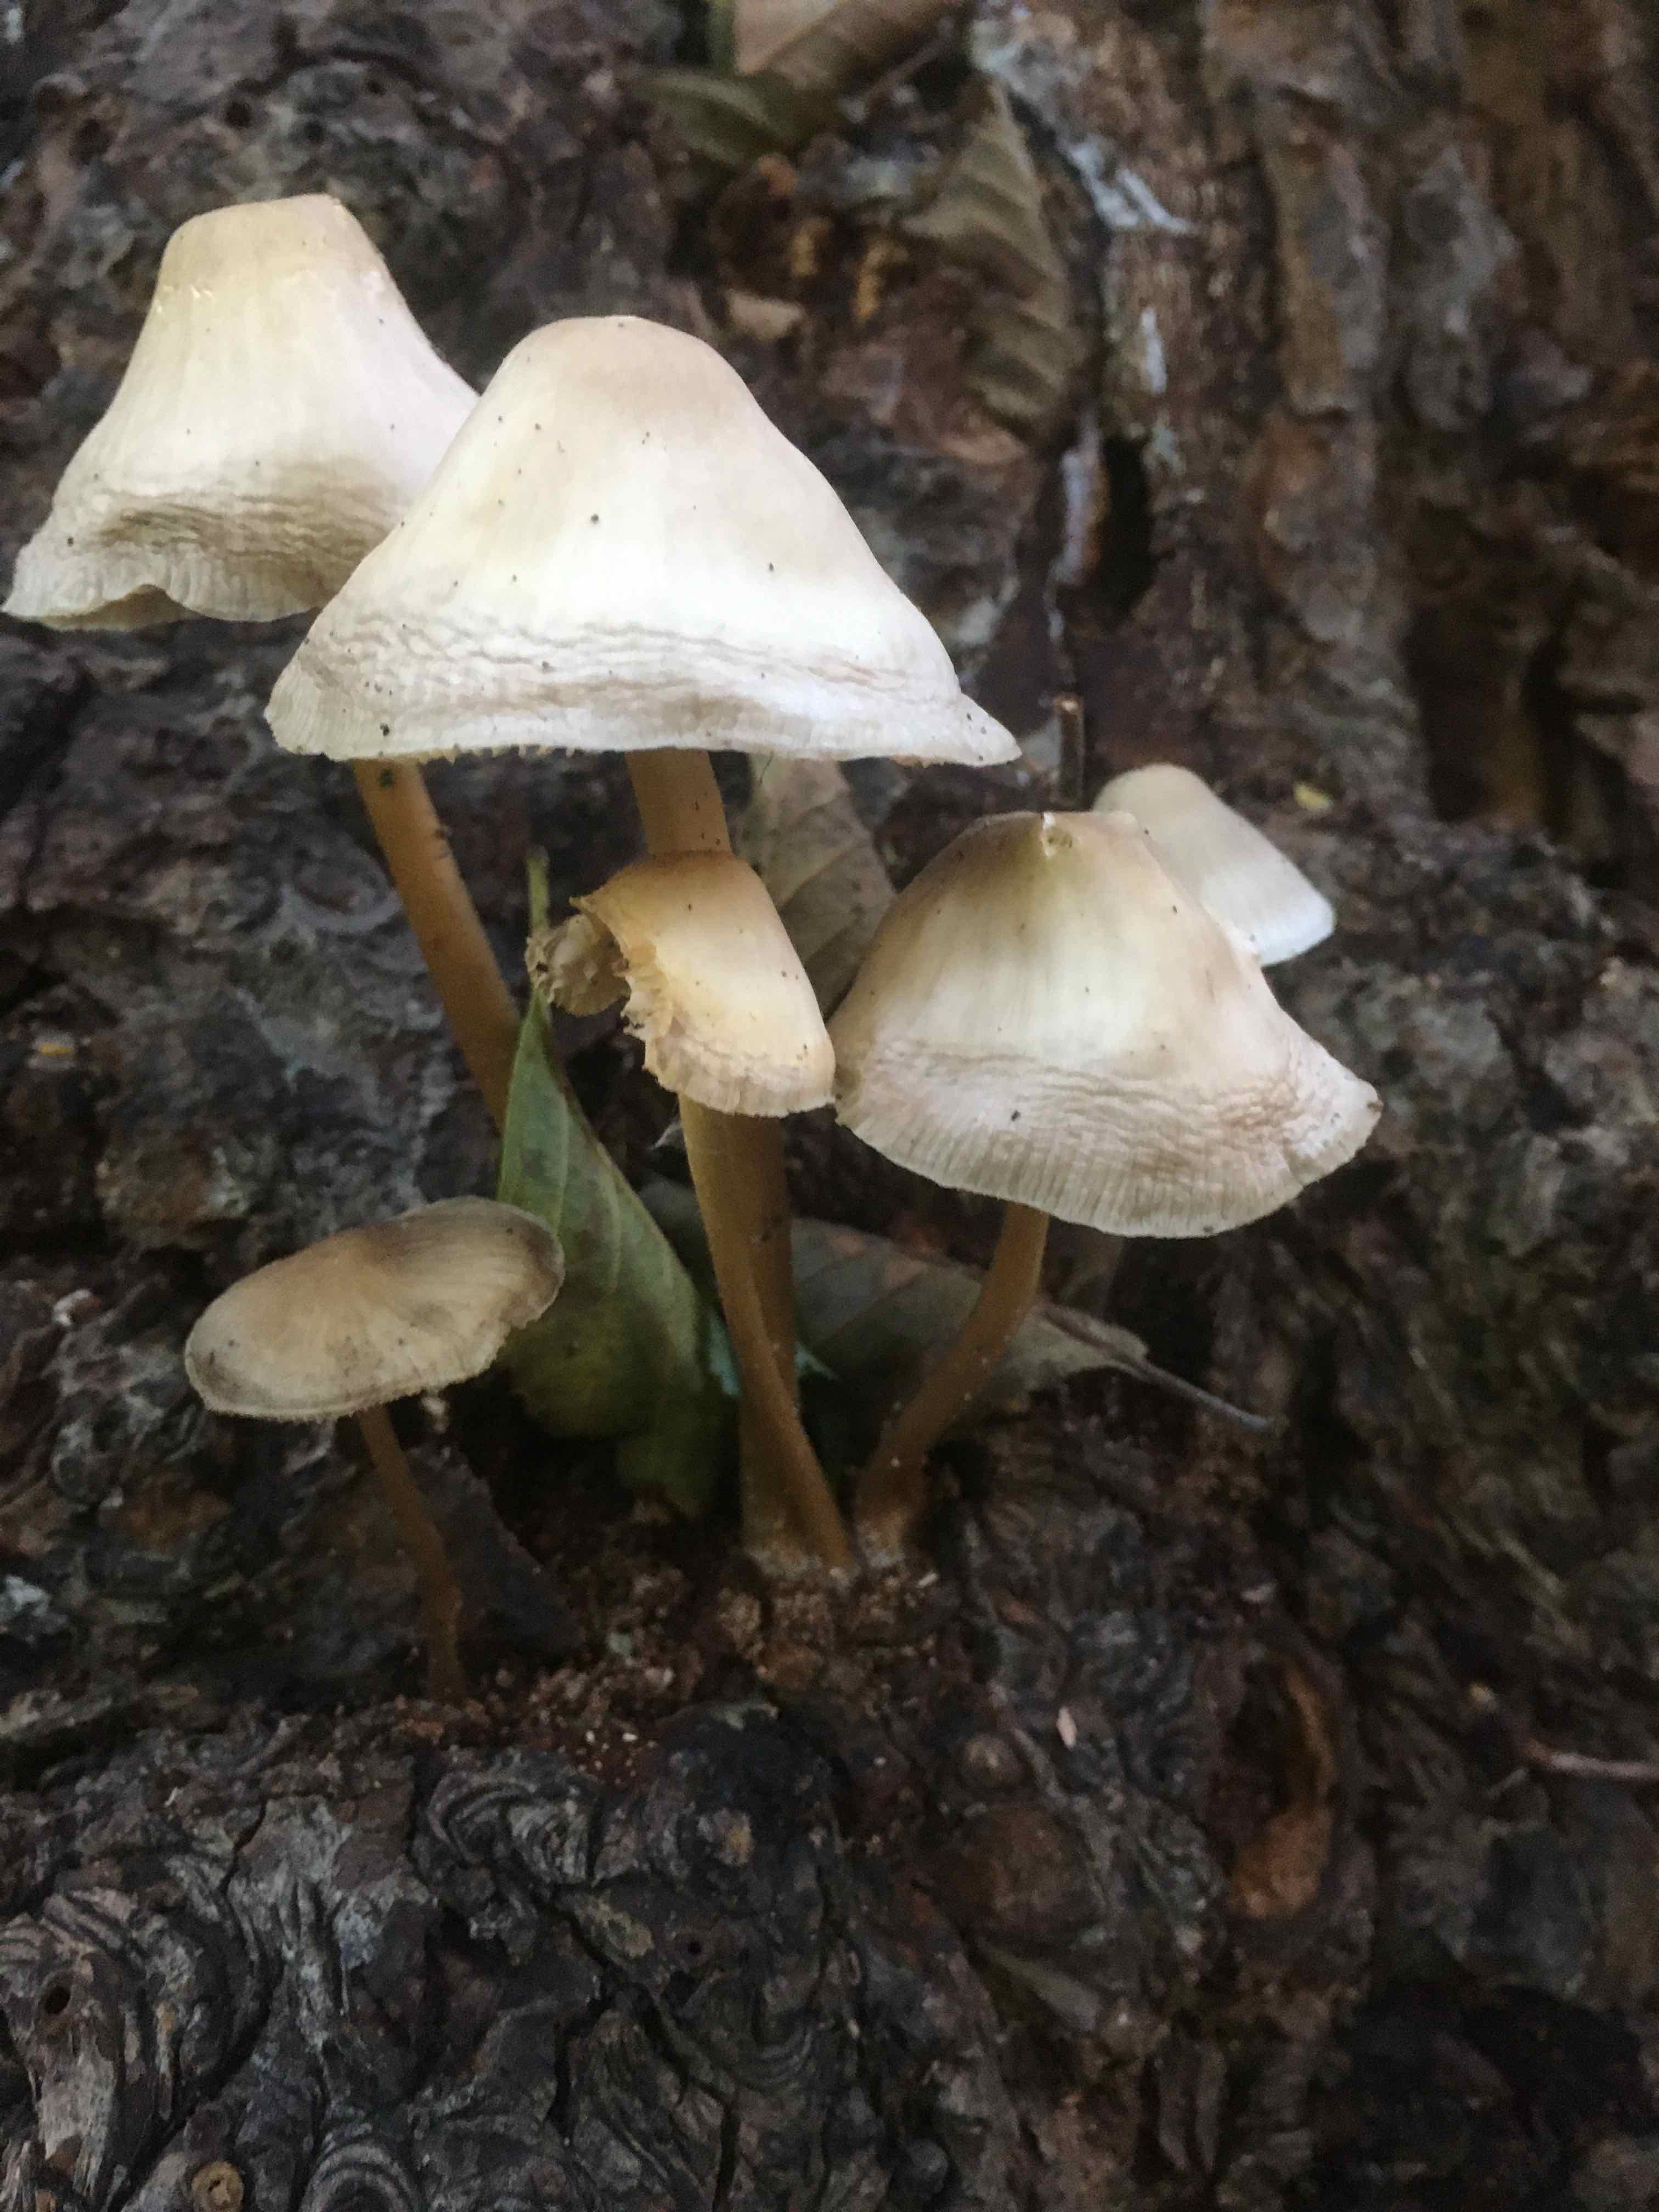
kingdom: Fungi
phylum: Basidiomycota
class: Agaricomycetes
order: Agaricales
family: Mycenaceae
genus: Mycena
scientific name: Mycena galericulata
